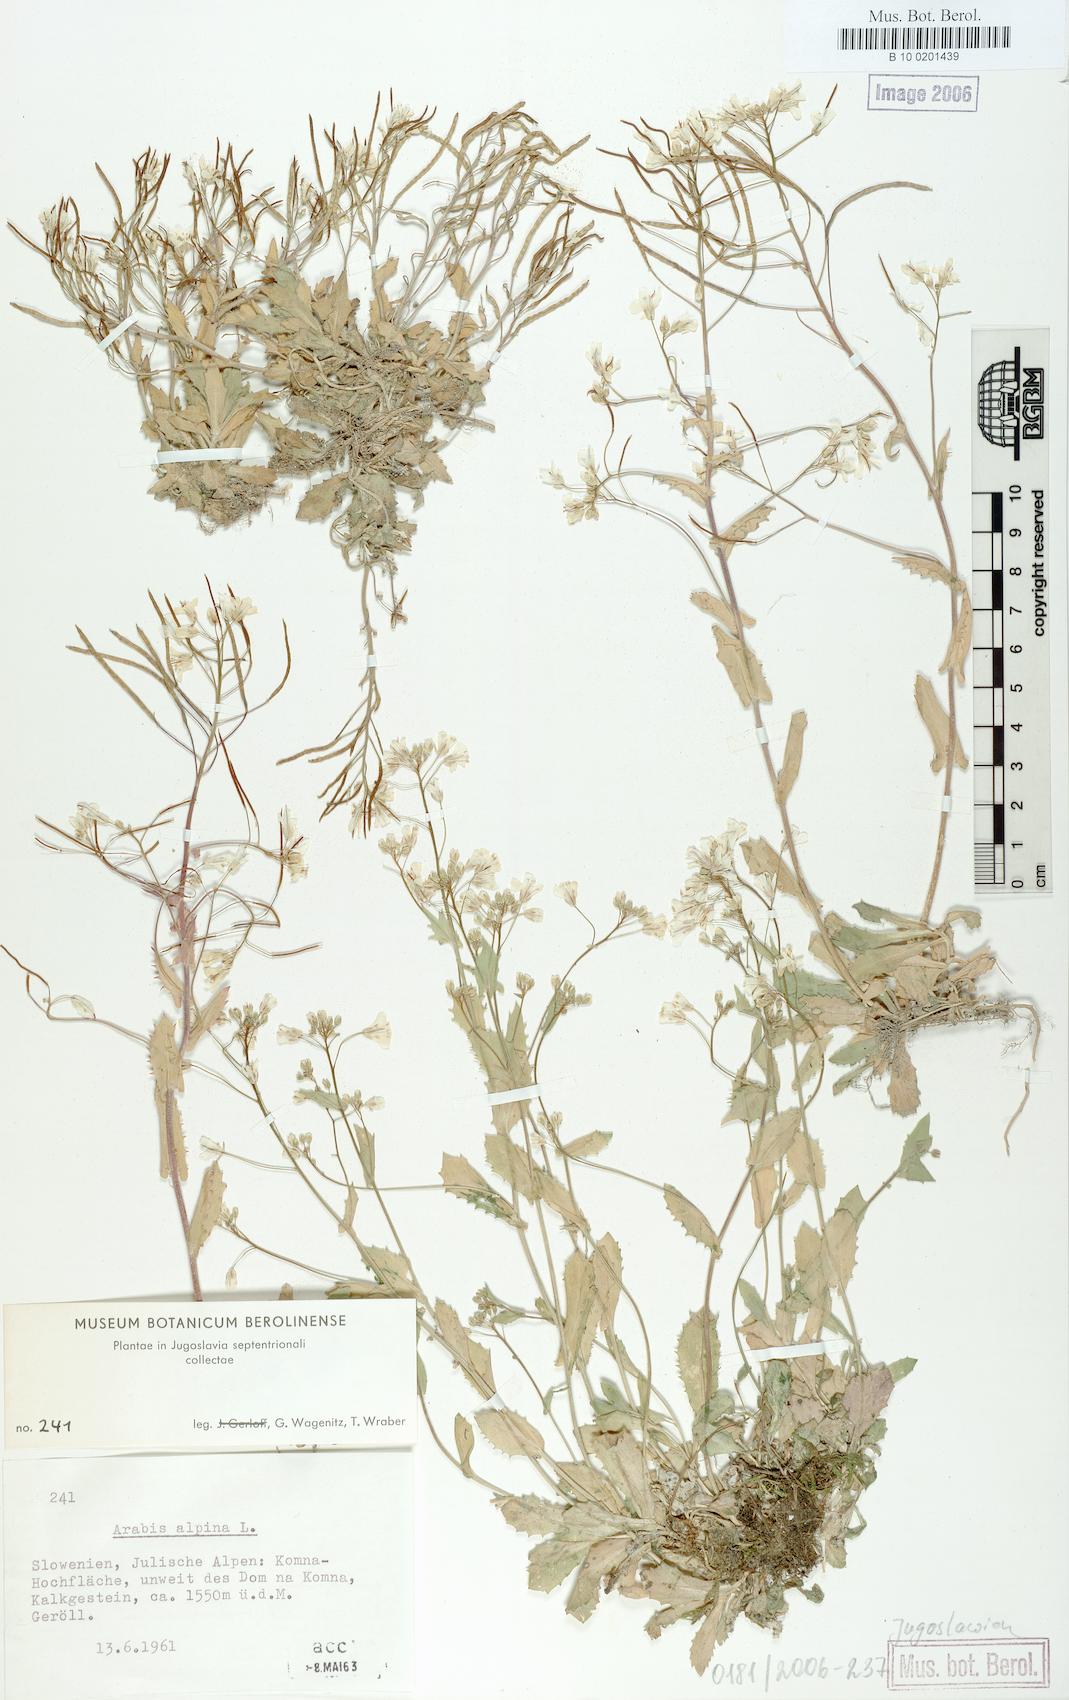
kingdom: Plantae
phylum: Tracheophyta
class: Magnoliopsida
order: Brassicales
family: Brassicaceae
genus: Arabis
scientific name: Arabis alpina
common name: Alpine rock-cress
